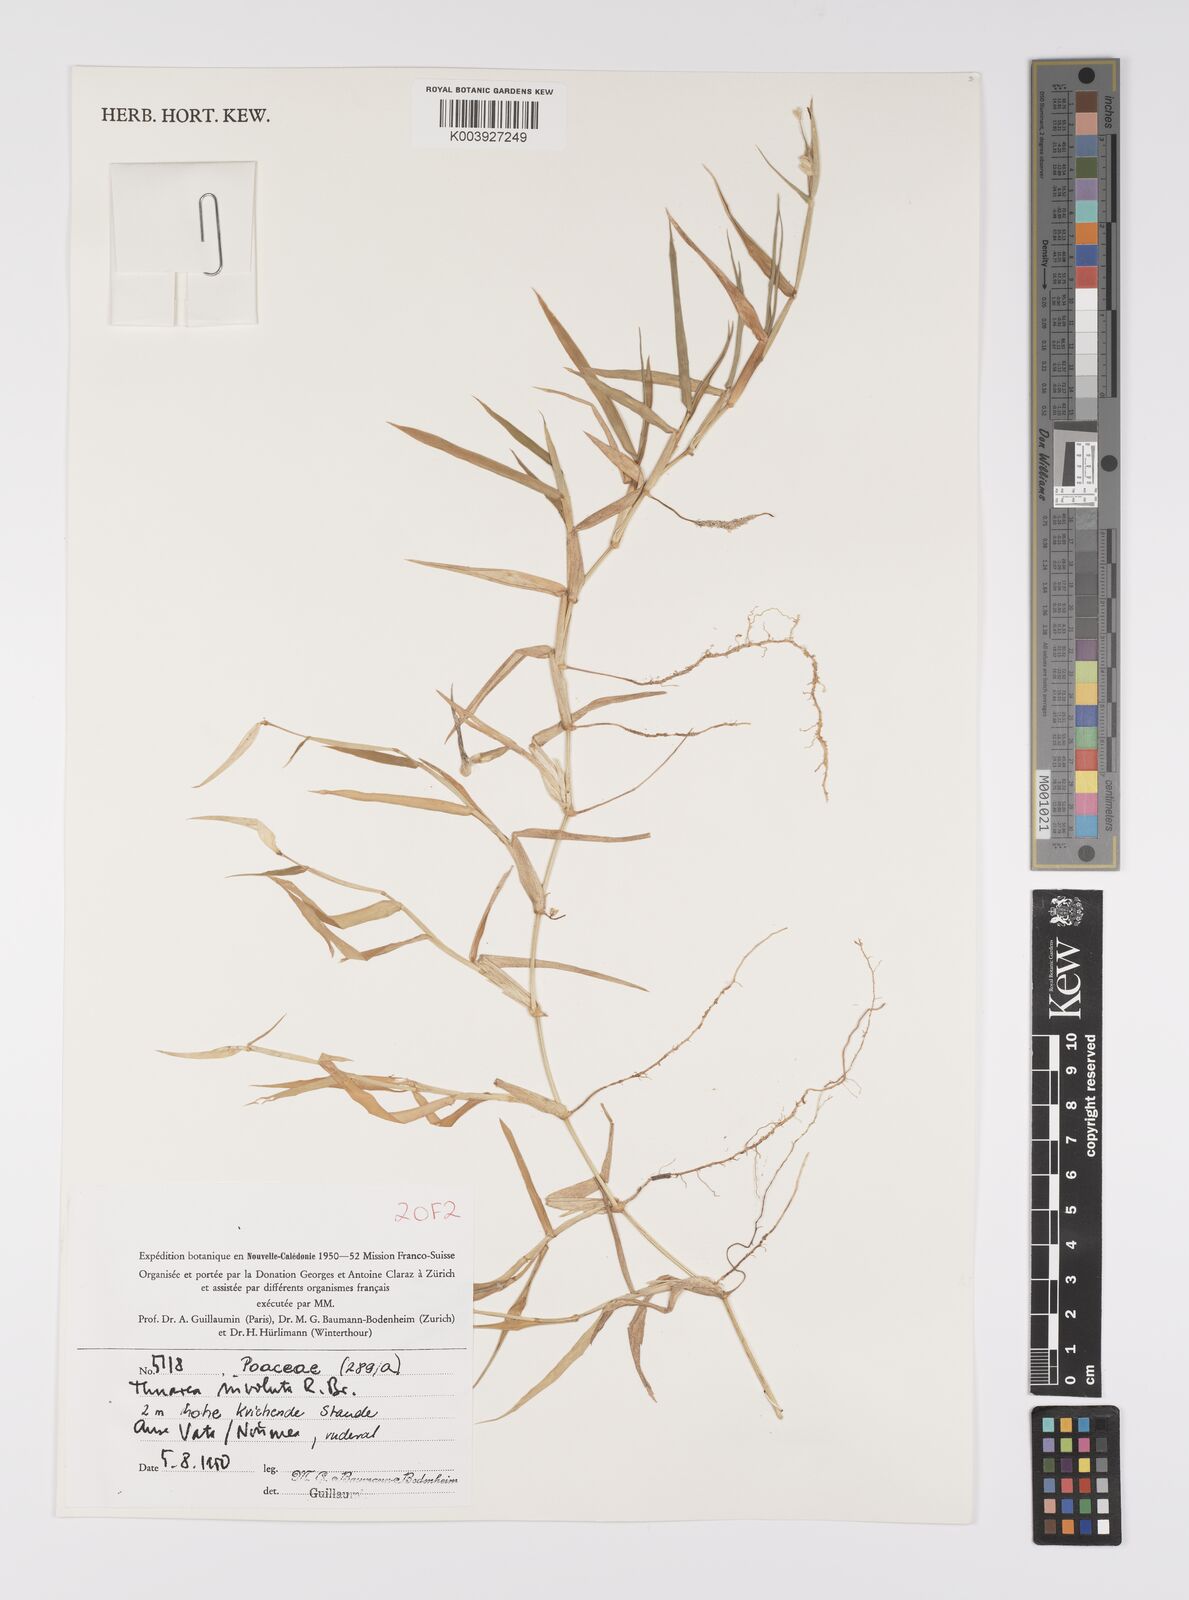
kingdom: Plantae
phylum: Tracheophyta
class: Liliopsida
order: Poales
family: Poaceae
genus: Thuarea
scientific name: Thuarea involuta
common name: Tropical beach grass
